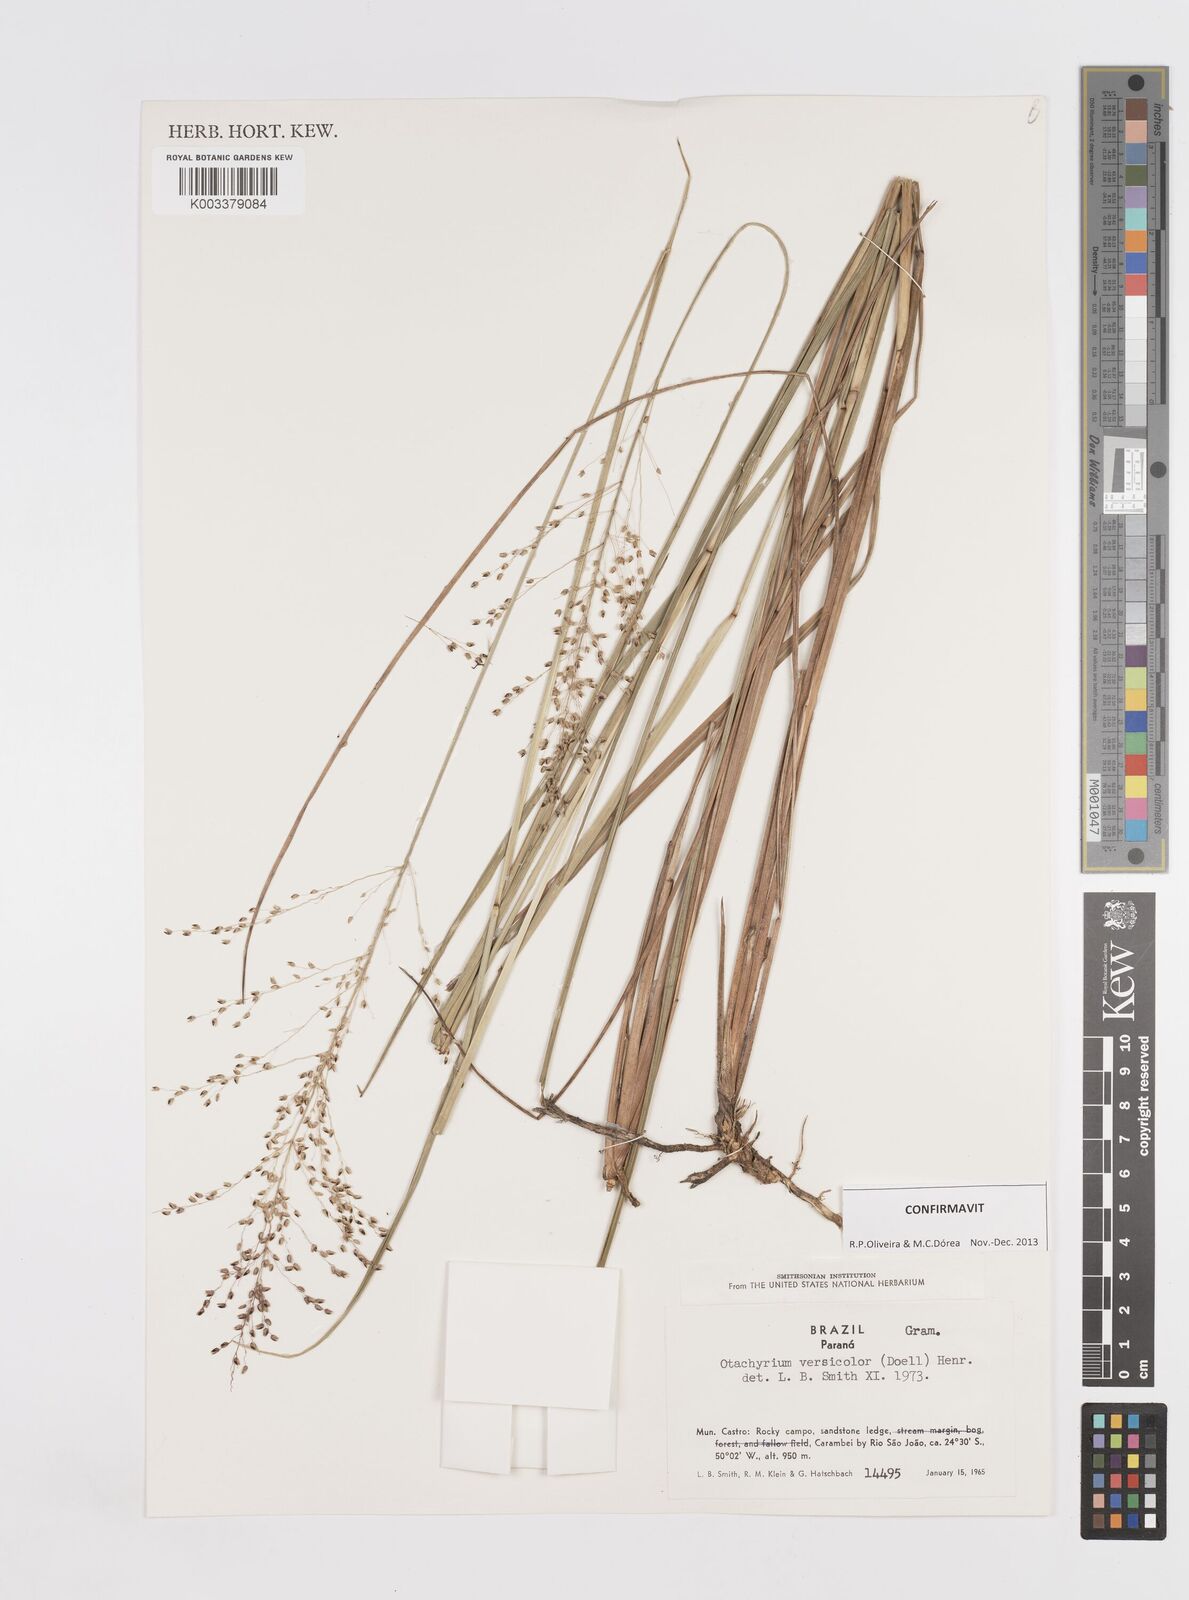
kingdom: Plantae
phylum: Tracheophyta
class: Liliopsida
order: Poales
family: Poaceae
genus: Otachyrium
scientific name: Otachyrium versicolor
